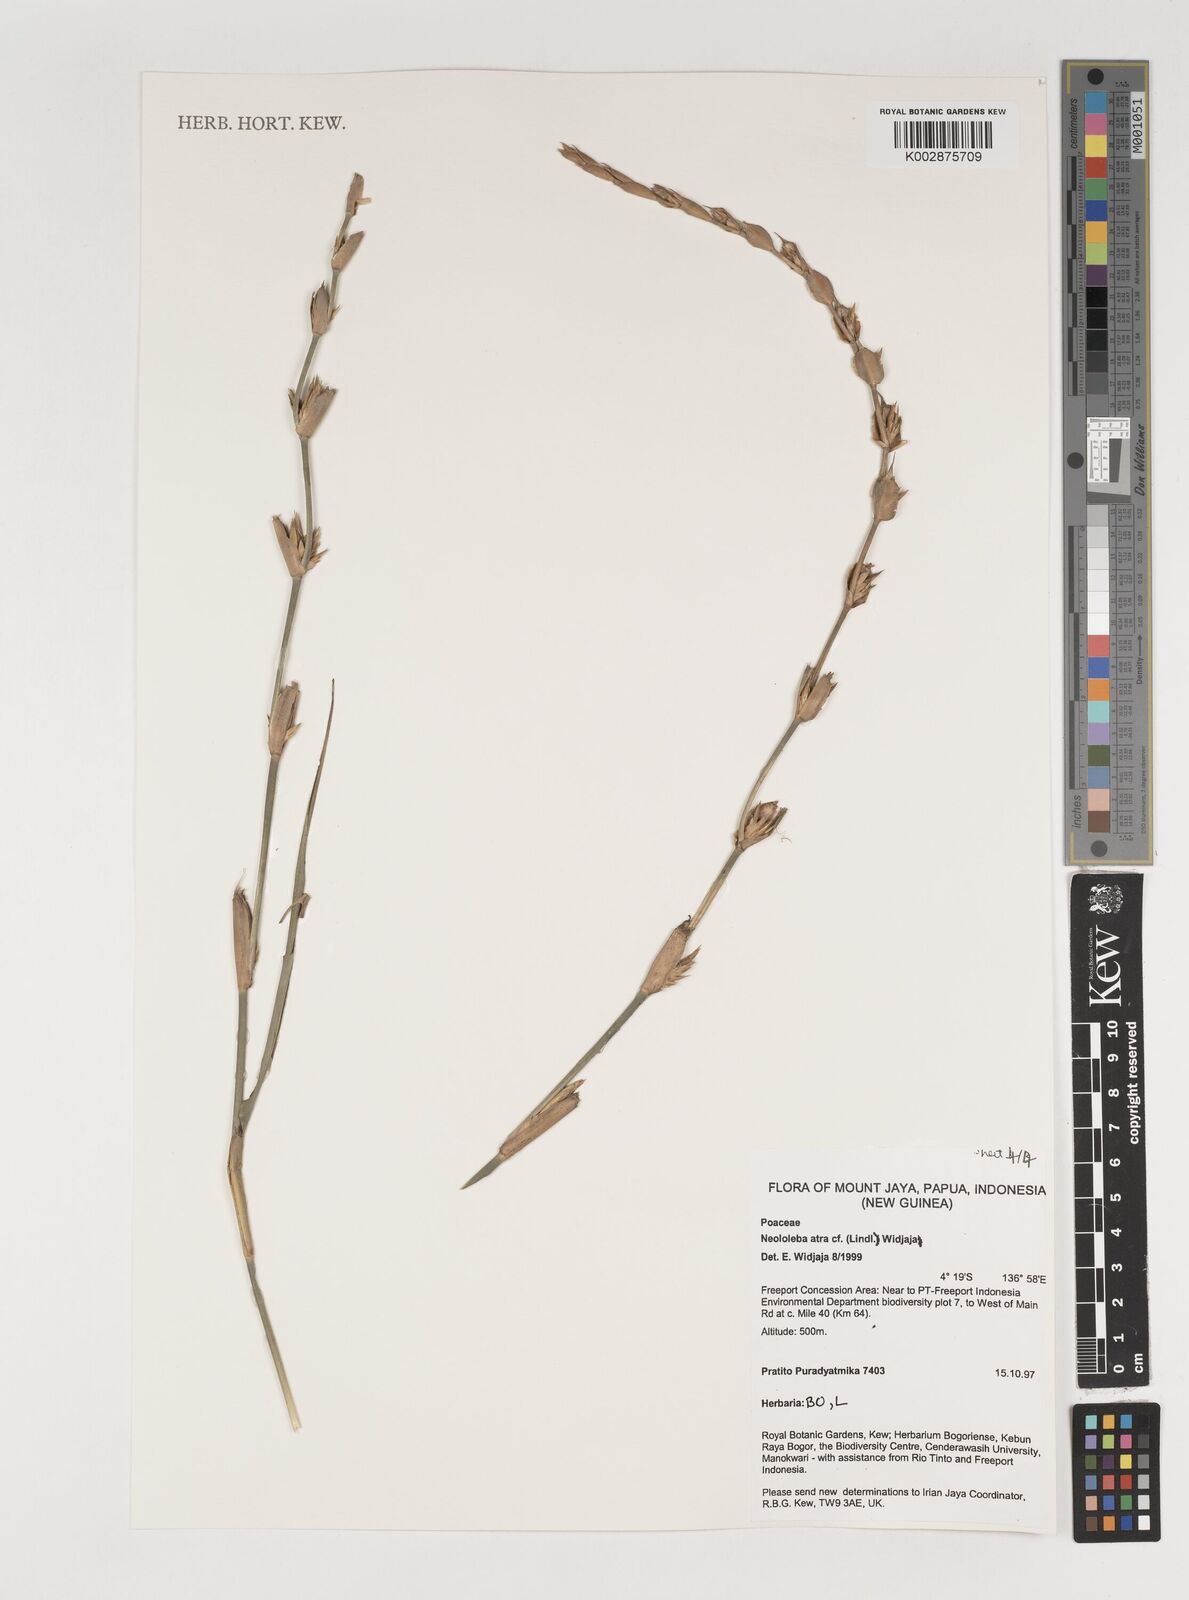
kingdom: Plantae
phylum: Tracheophyta
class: Liliopsida
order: Poales
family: Poaceae
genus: Neololeba
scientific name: Neololeba atra
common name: Cape bamboo
